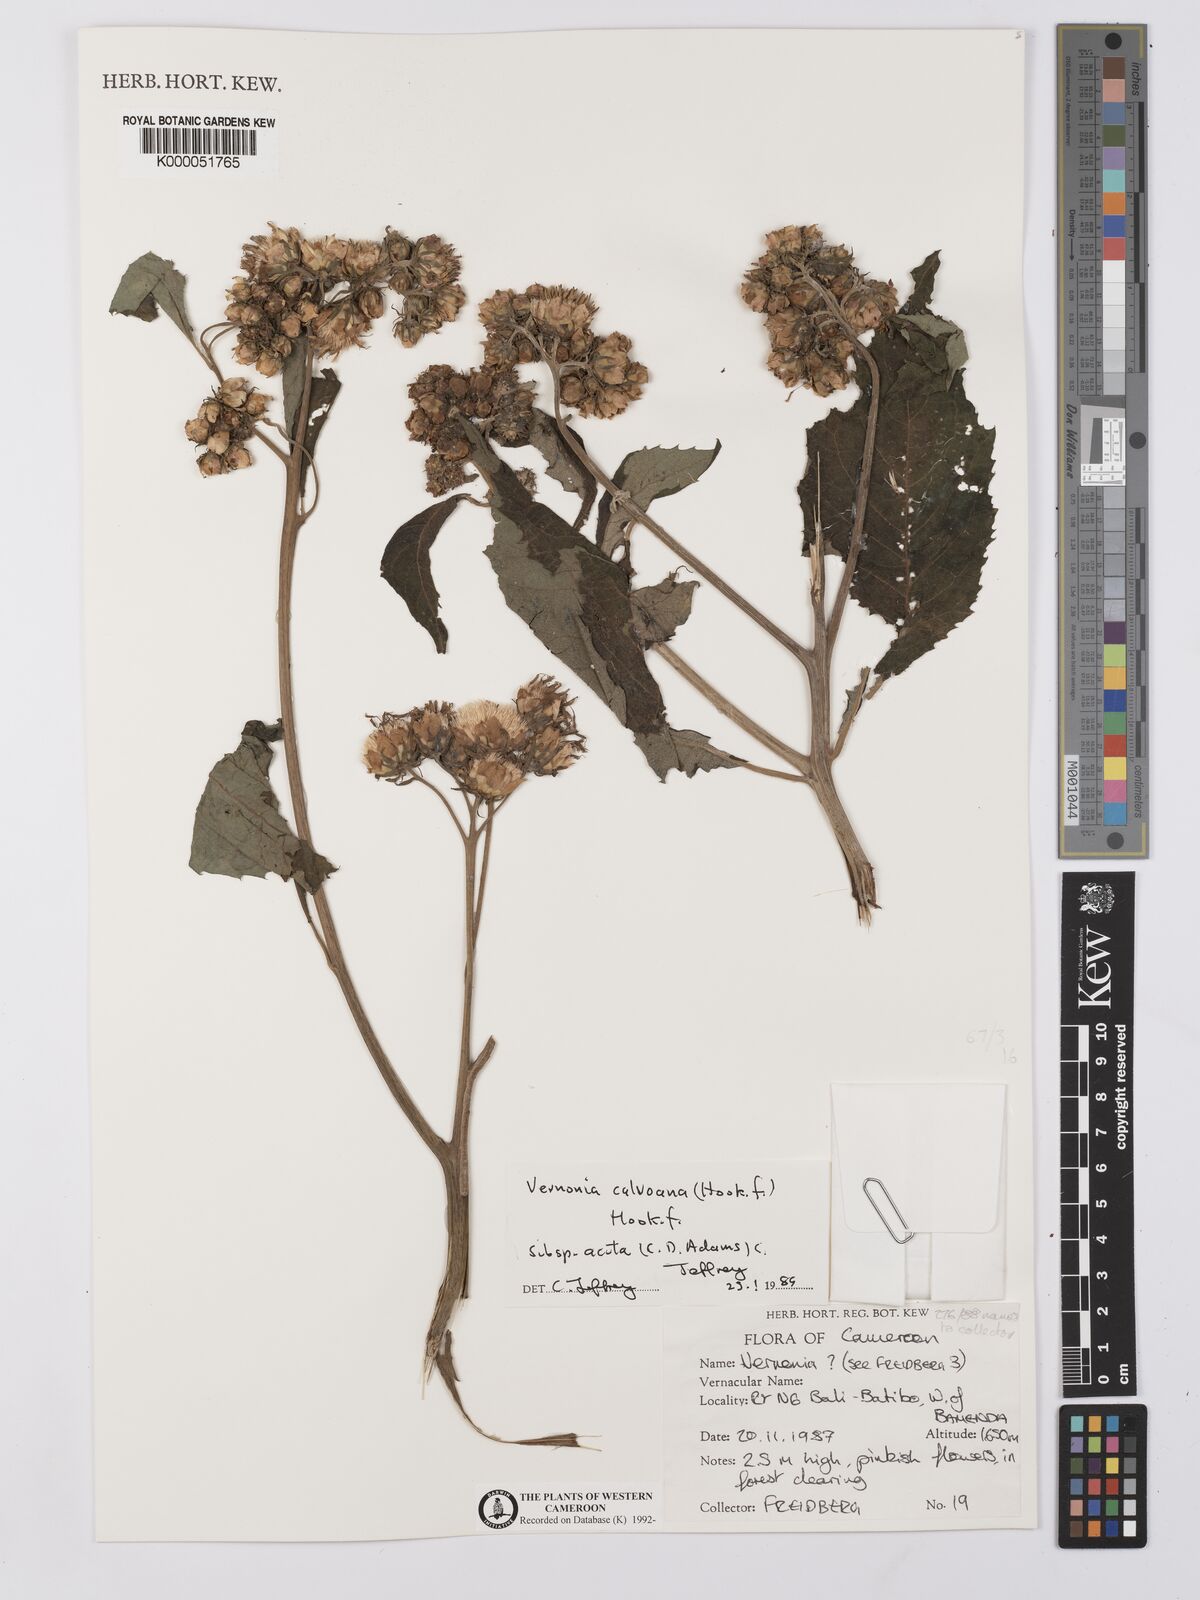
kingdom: Plantae
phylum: Tracheophyta
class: Magnoliopsida
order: Asterales
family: Asteraceae
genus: Baccharoides
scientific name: Baccharoides calvoana
